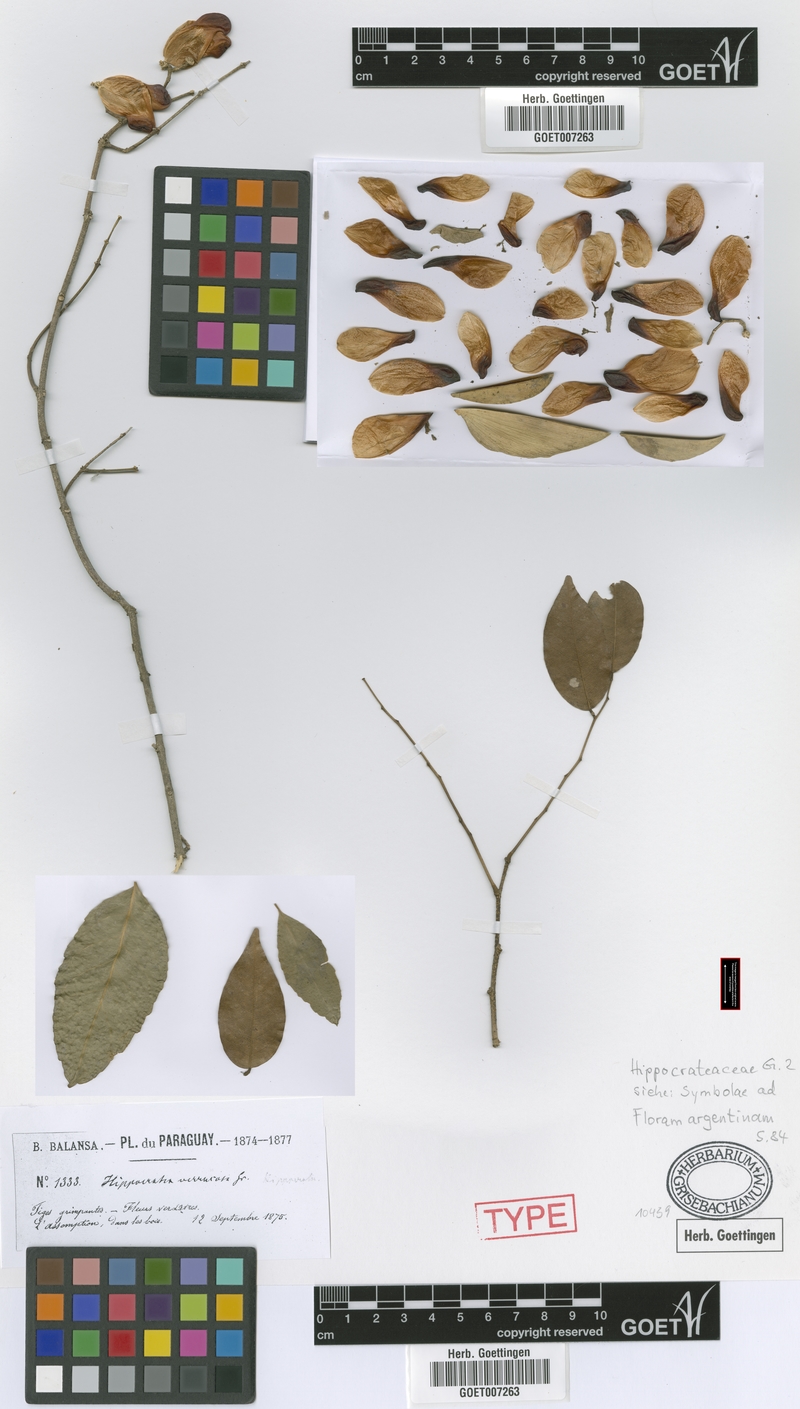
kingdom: Plantae
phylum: Tracheophyta
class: Magnoliopsida
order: Celastrales
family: Celastraceae
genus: Pristimera
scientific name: Pristimera celastroides
